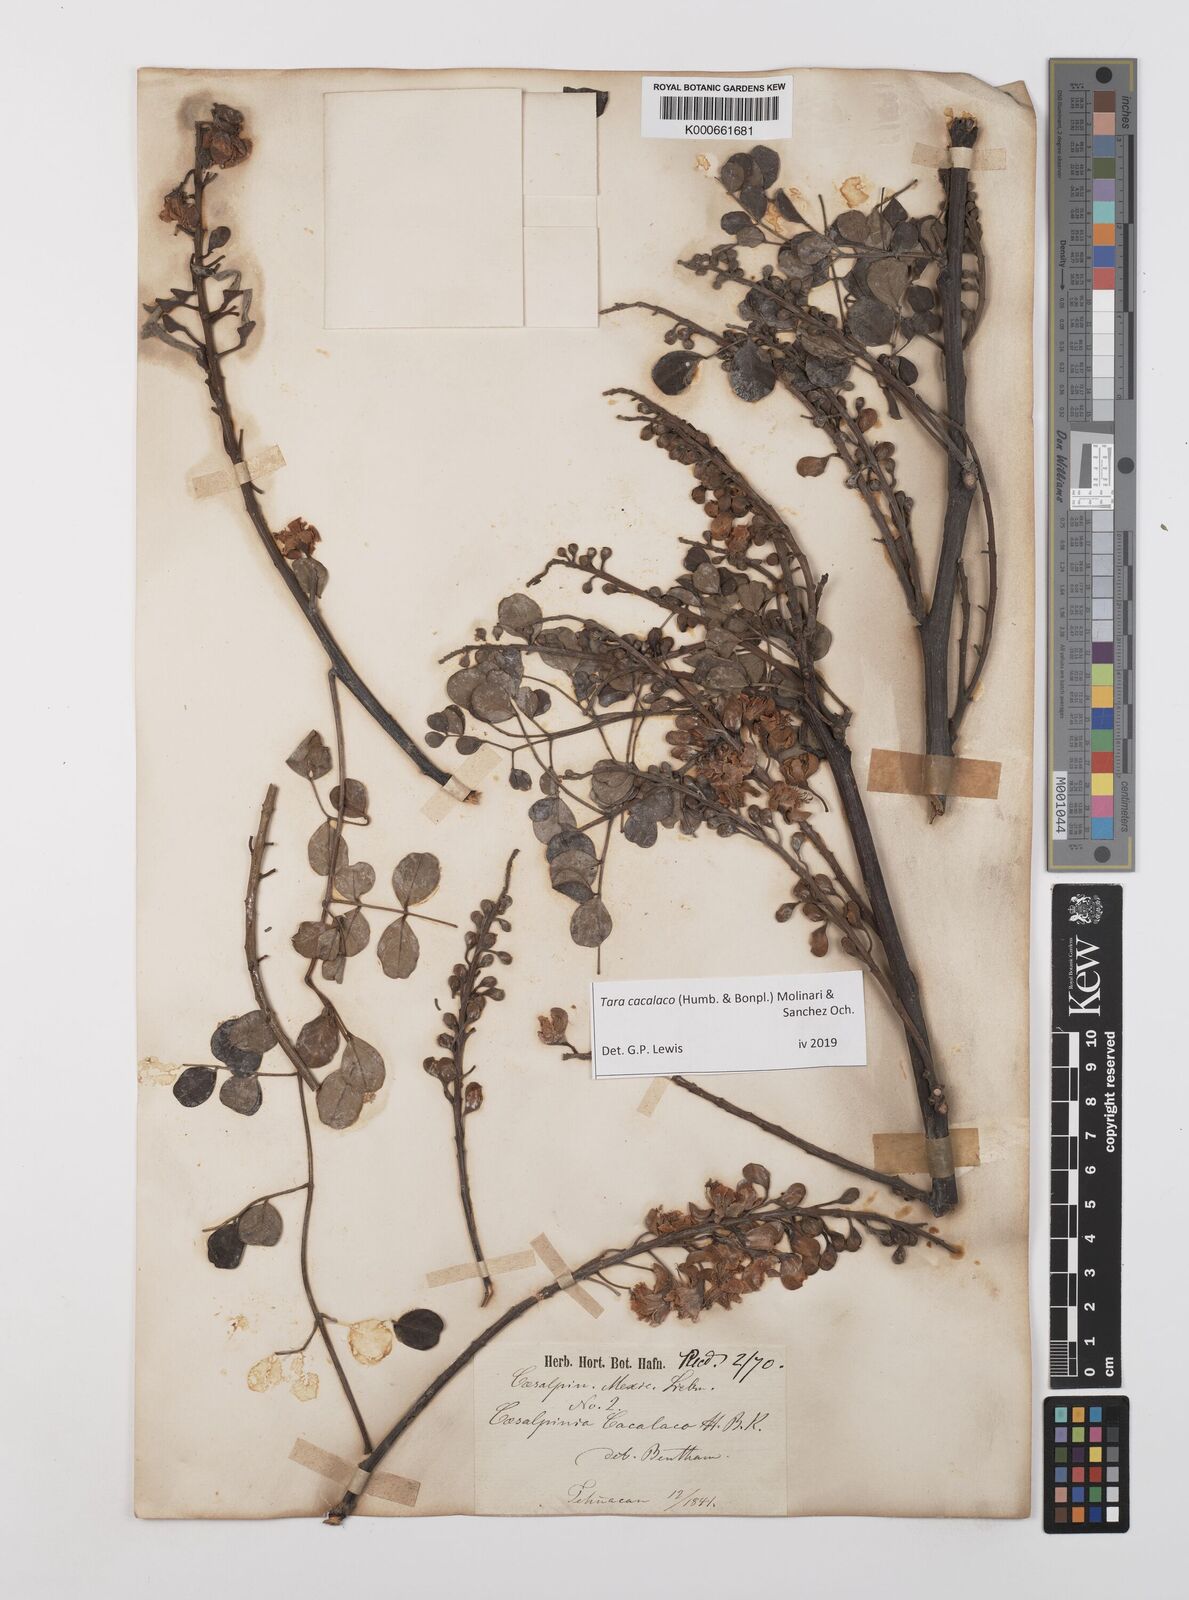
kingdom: Plantae
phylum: Tracheophyta
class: Magnoliopsida
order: Fabales
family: Fabaceae
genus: Tara
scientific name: Tara cacalaco
